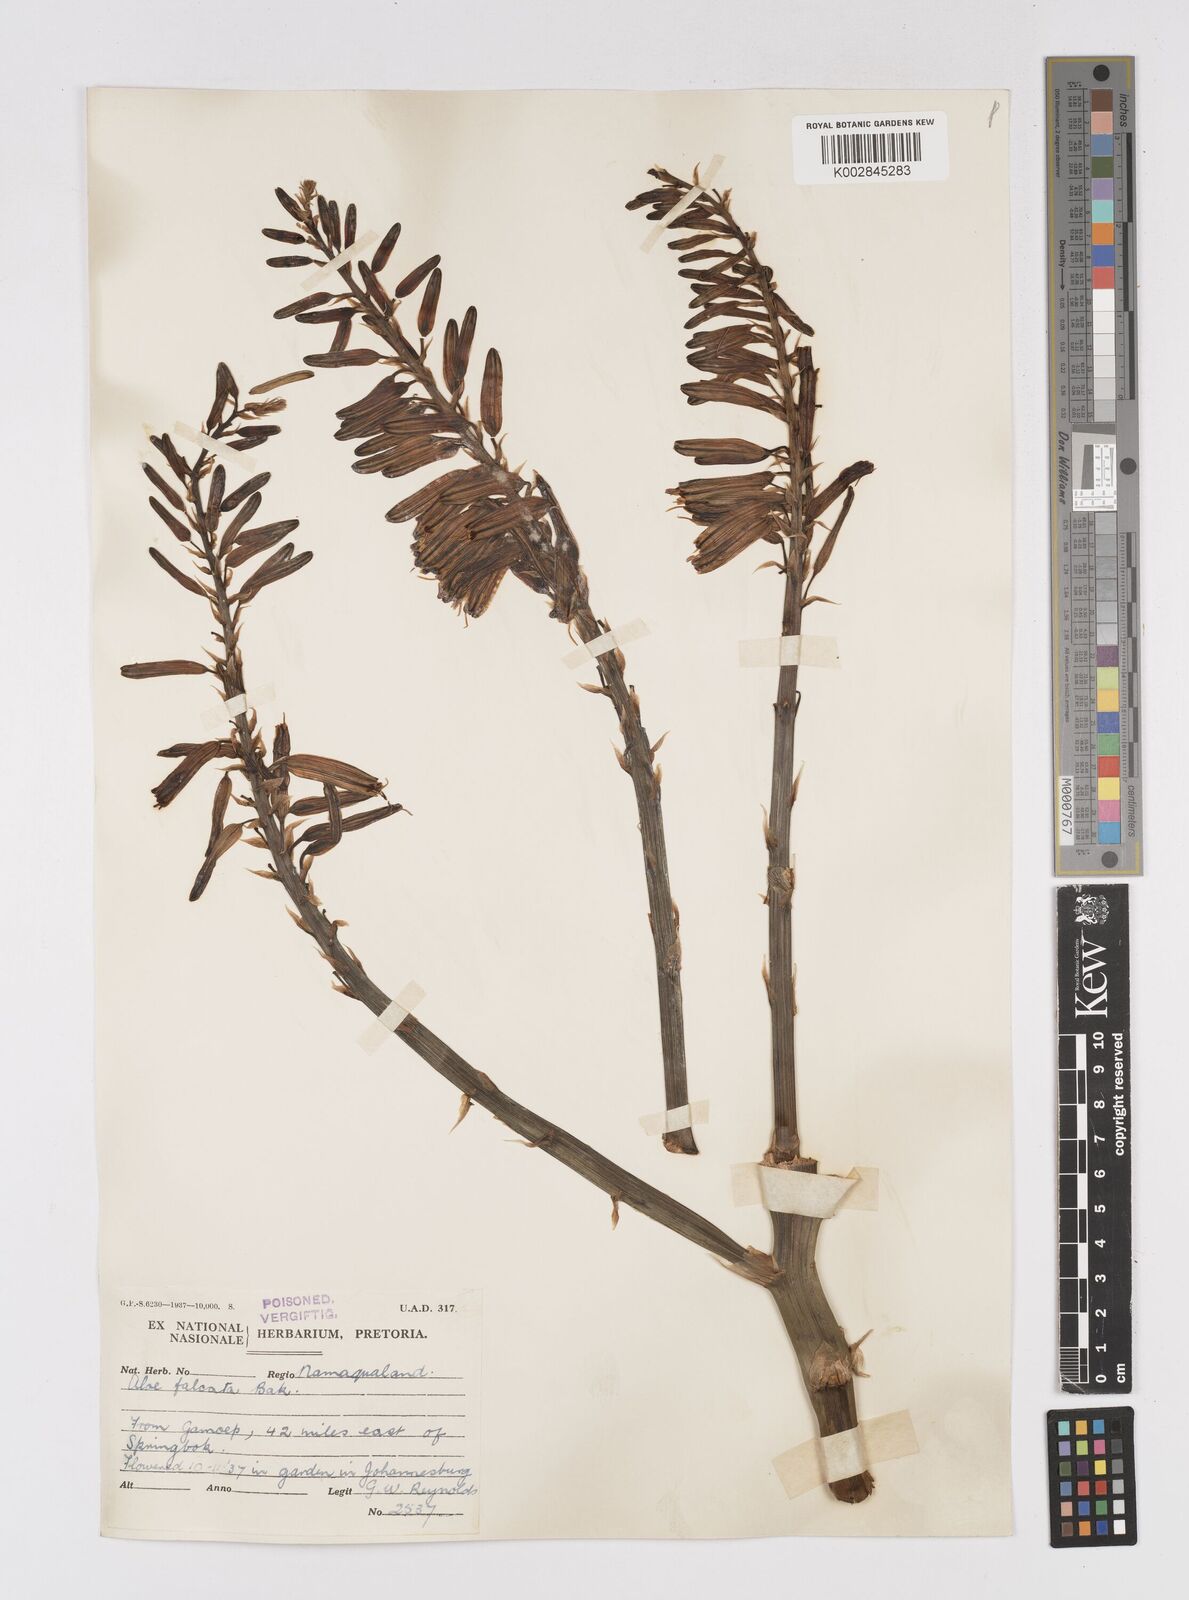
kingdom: Plantae
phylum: Tracheophyta
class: Liliopsida
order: Asparagales
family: Asphodelaceae
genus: Aloe
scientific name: Aloe falcata
